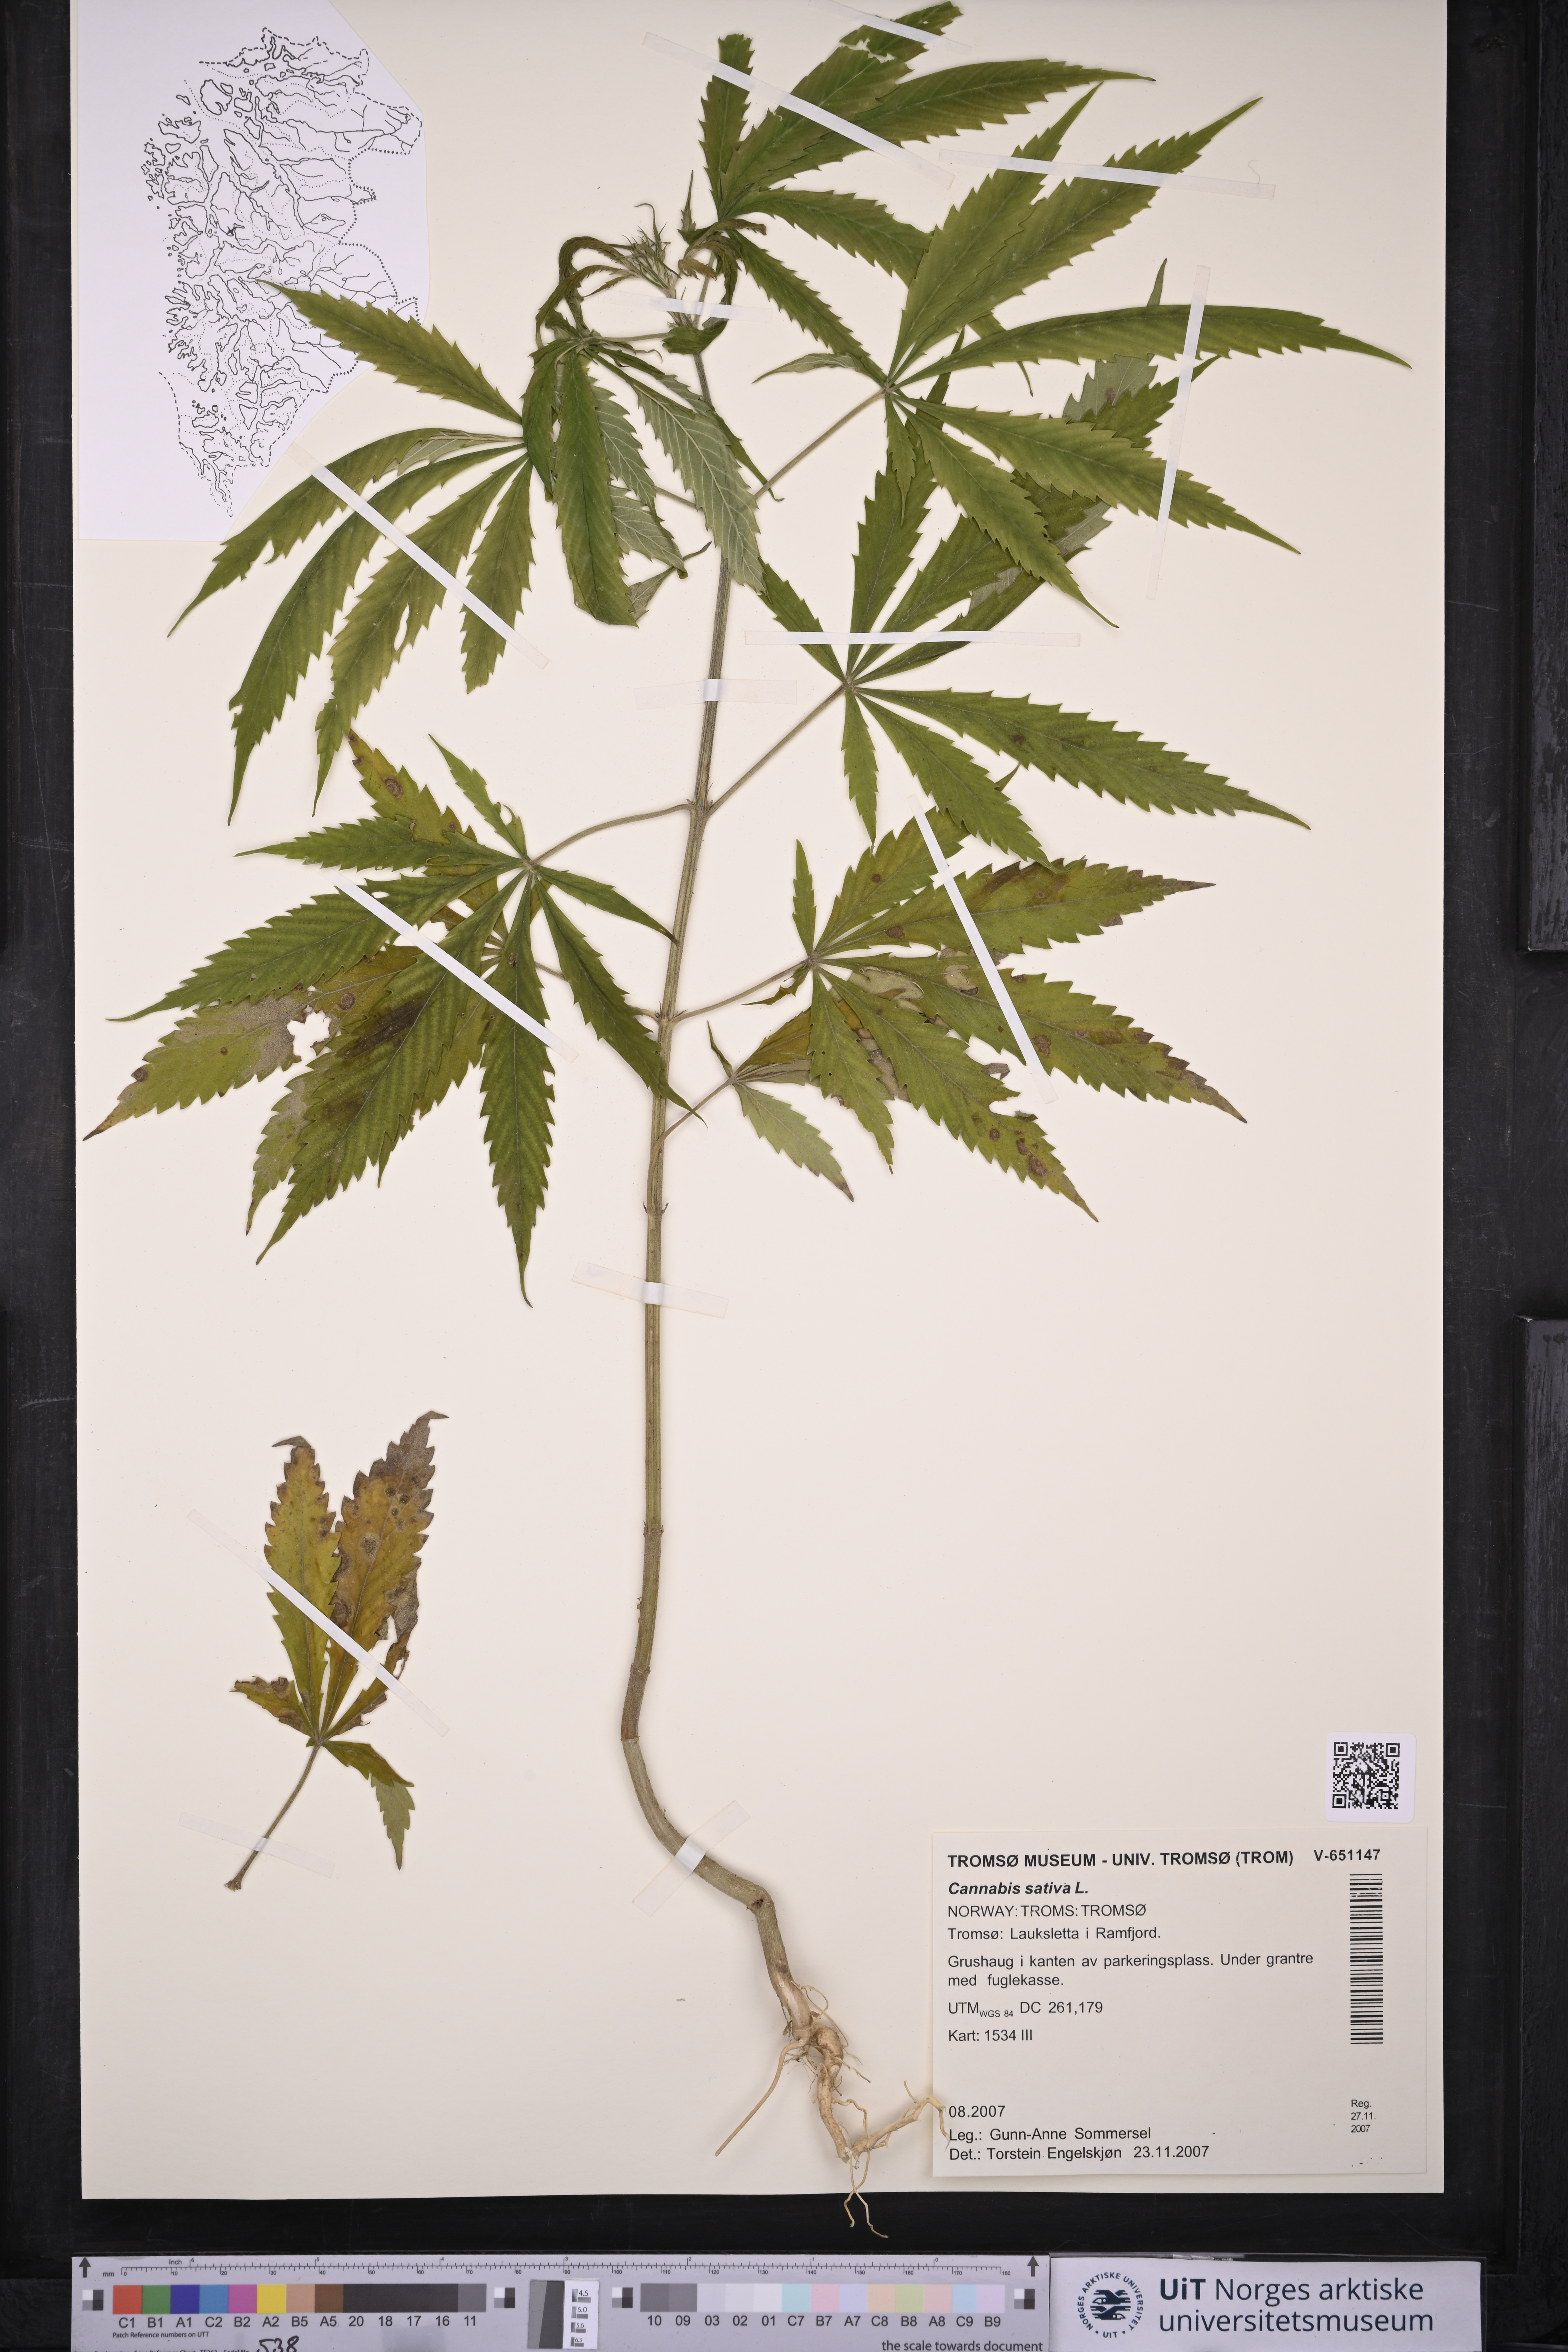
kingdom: Plantae
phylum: Tracheophyta
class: Magnoliopsida
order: Rosales
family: Cannabaceae
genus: Cannabis
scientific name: Cannabis sativa
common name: Hemp
